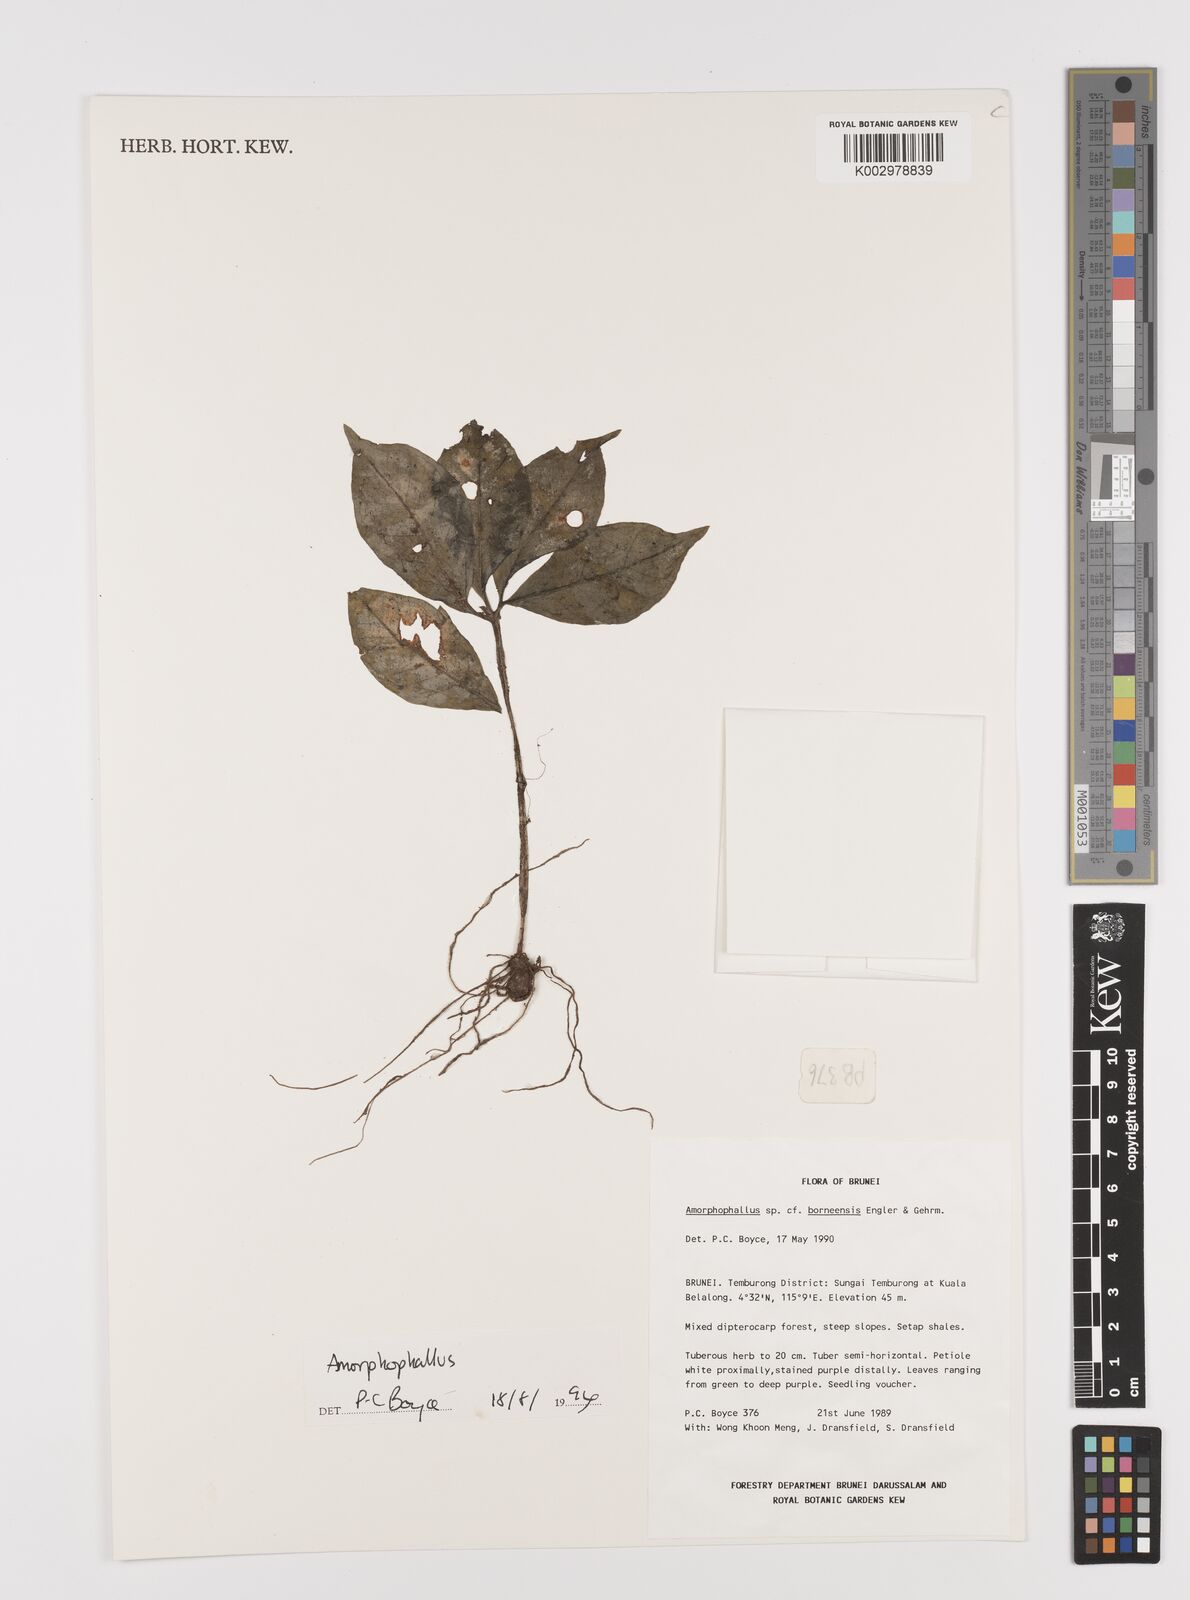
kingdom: Plantae
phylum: Tracheophyta
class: Liliopsida
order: Alismatales
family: Araceae
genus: Amorphophallus
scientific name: Amorphophallus
